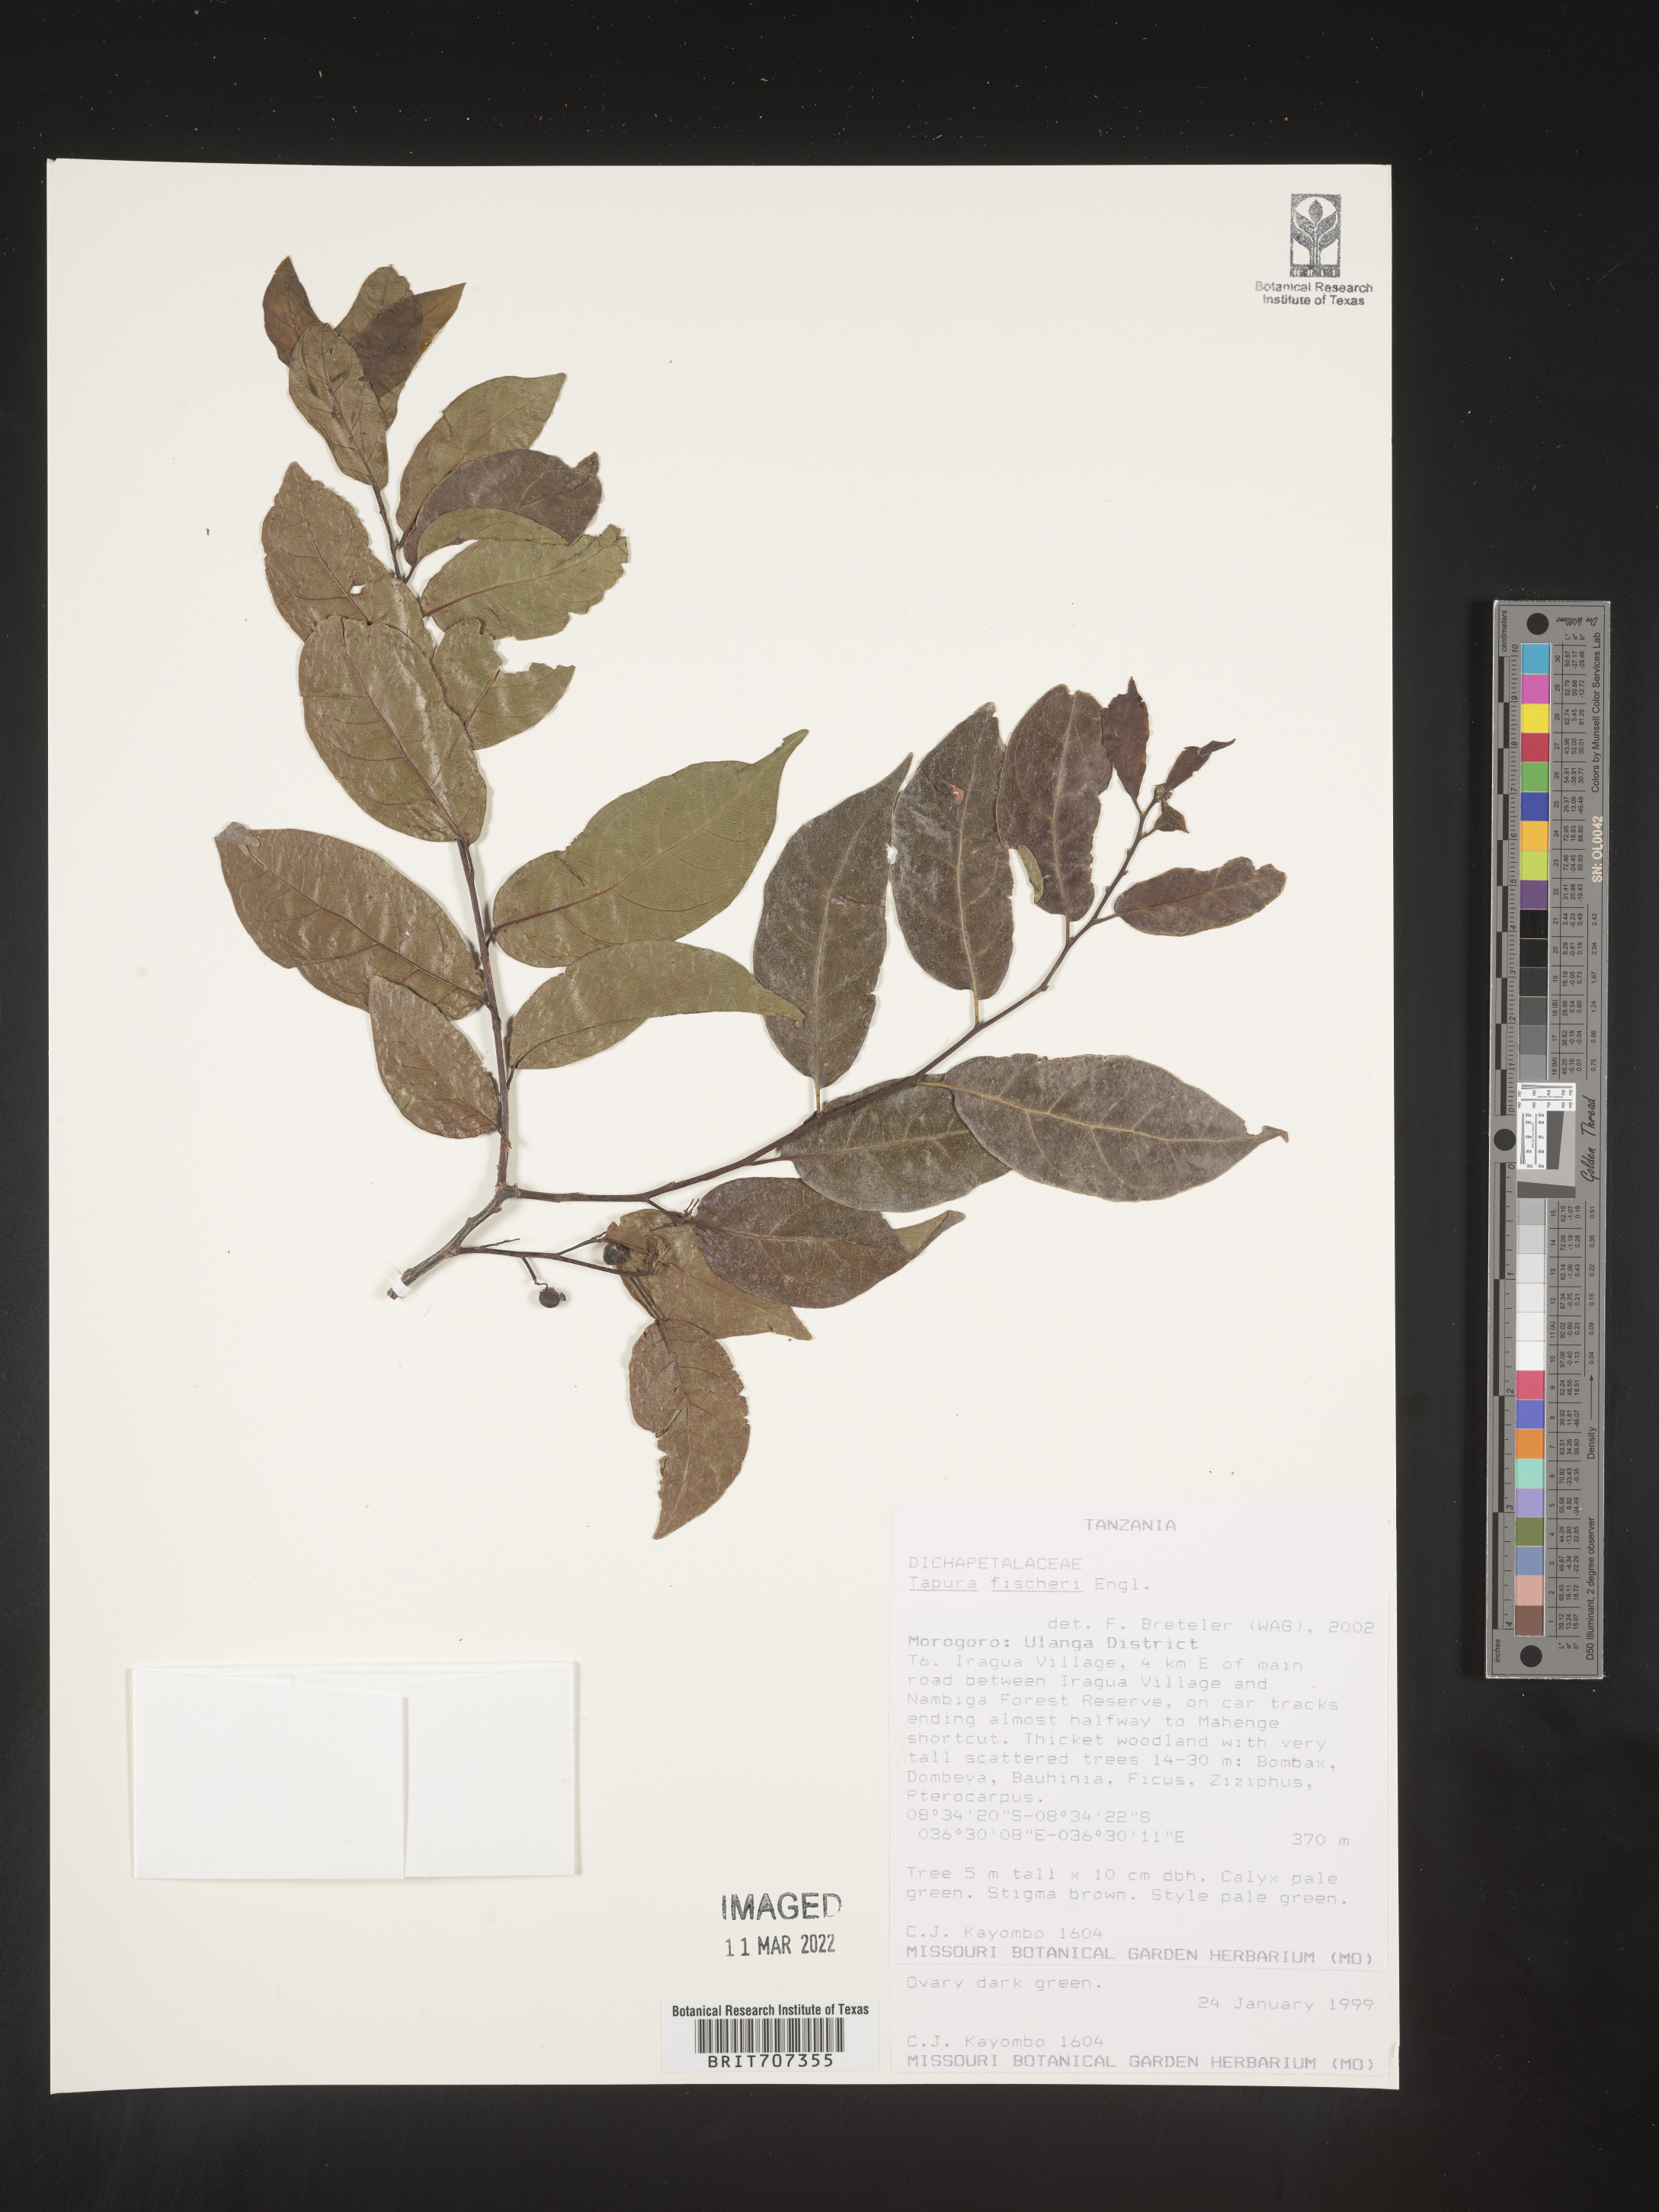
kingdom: Plantae
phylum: Tracheophyta
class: Magnoliopsida
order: Malpighiales
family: Dichapetalaceae
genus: Dichapetalum
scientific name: Dichapetalum
